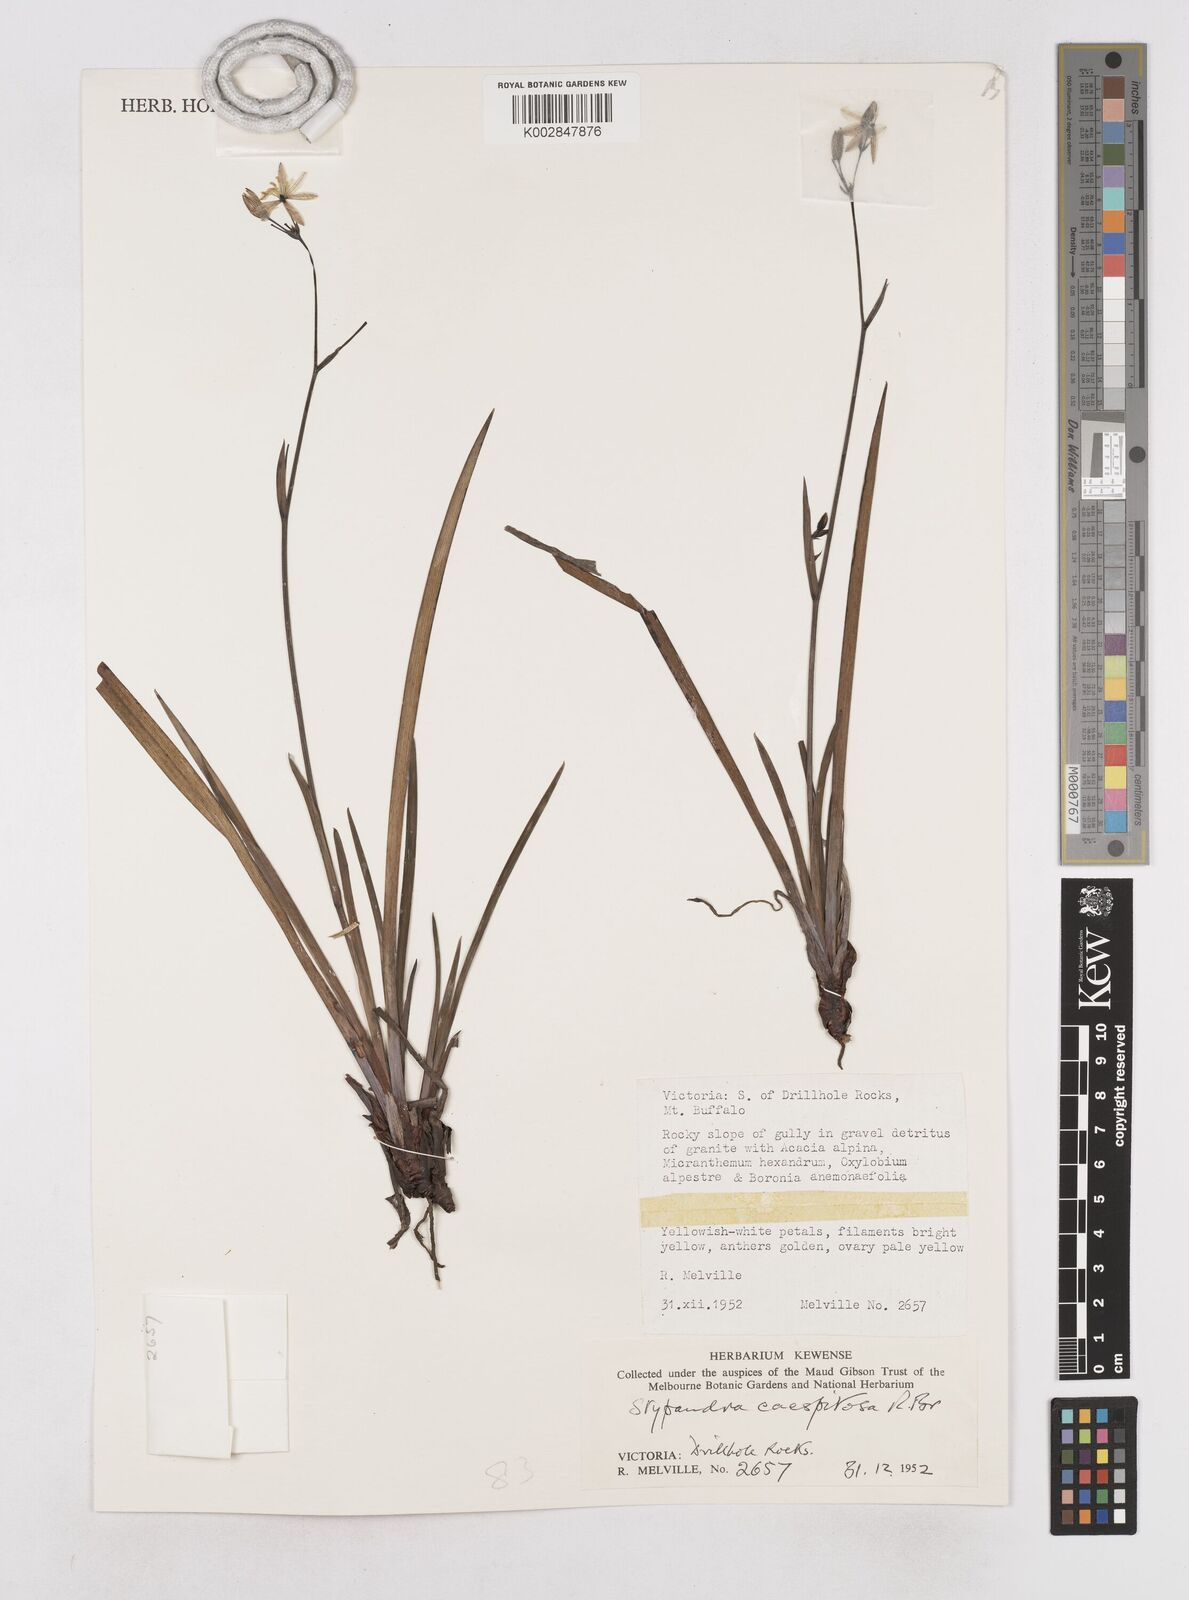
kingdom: Plantae
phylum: Tracheophyta
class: Liliopsida
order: Asparagales
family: Asphodelaceae
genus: Thelionema
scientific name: Thelionema caespitosum
